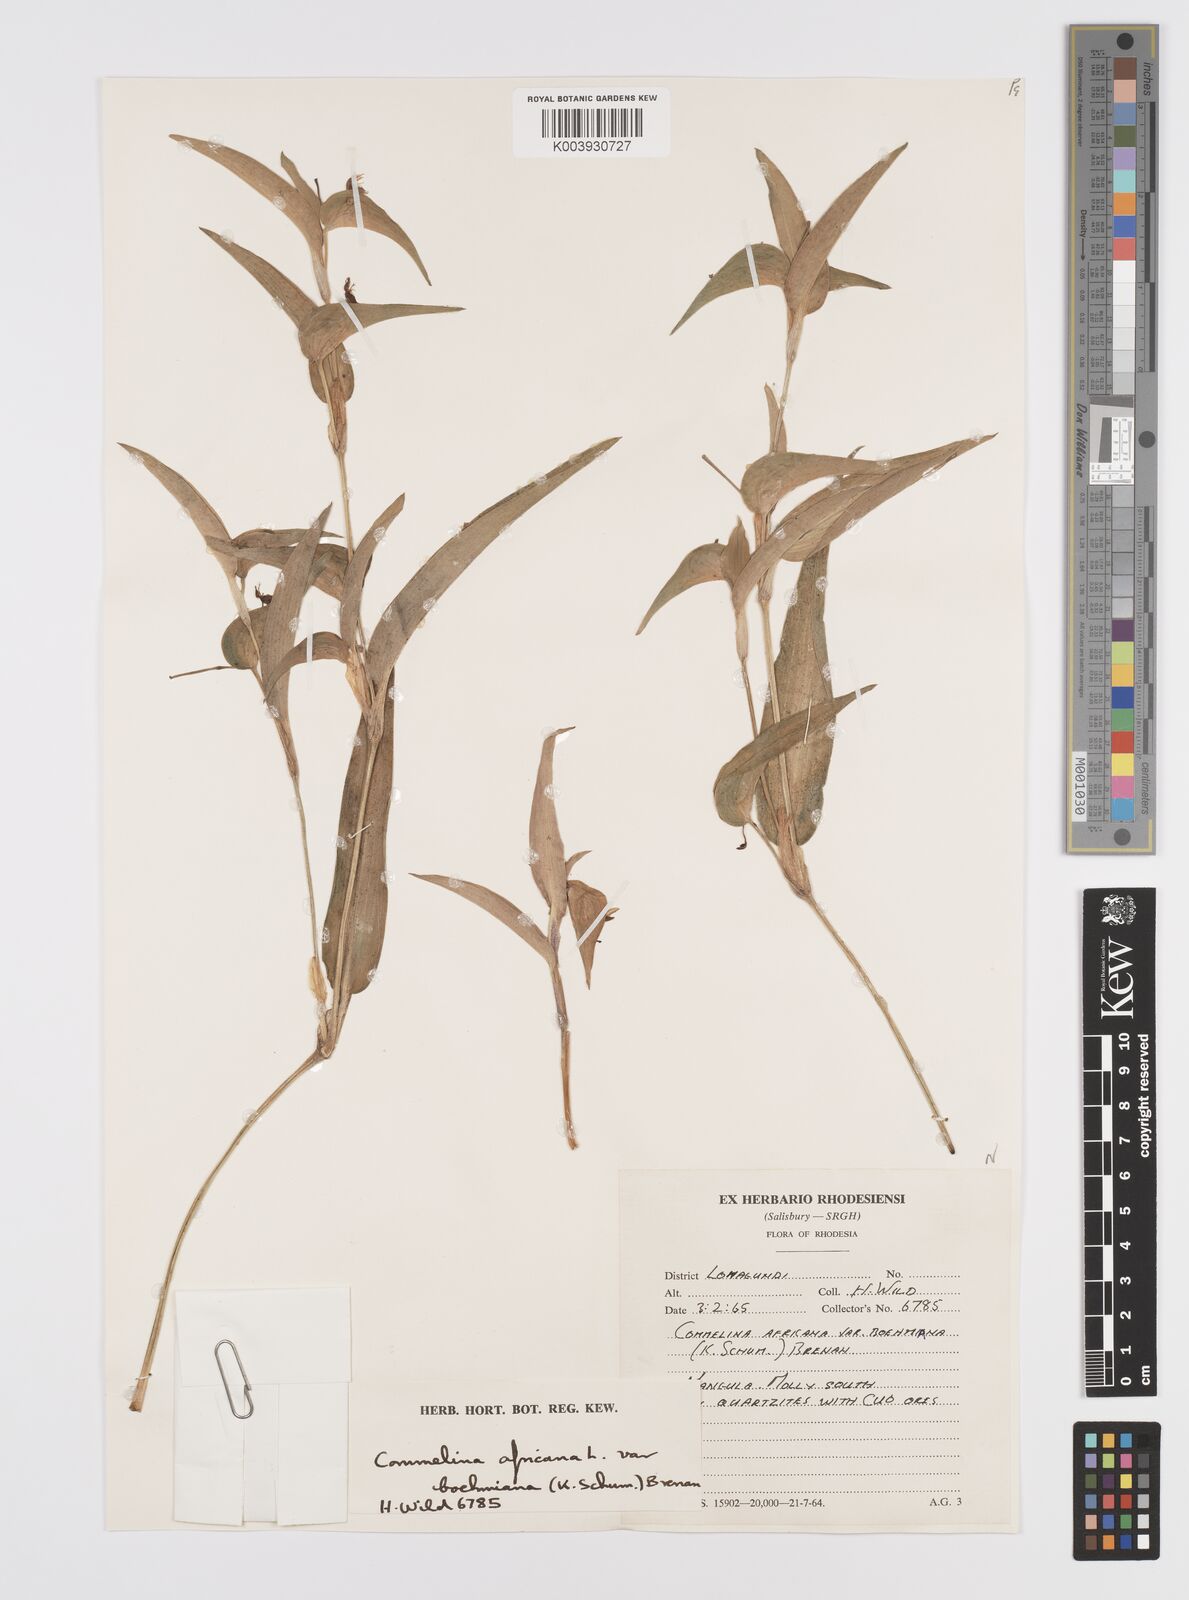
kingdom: Plantae
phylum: Tracheophyta
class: Liliopsida
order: Commelinales
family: Commelinaceae
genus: Commelina
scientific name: Commelina africana
